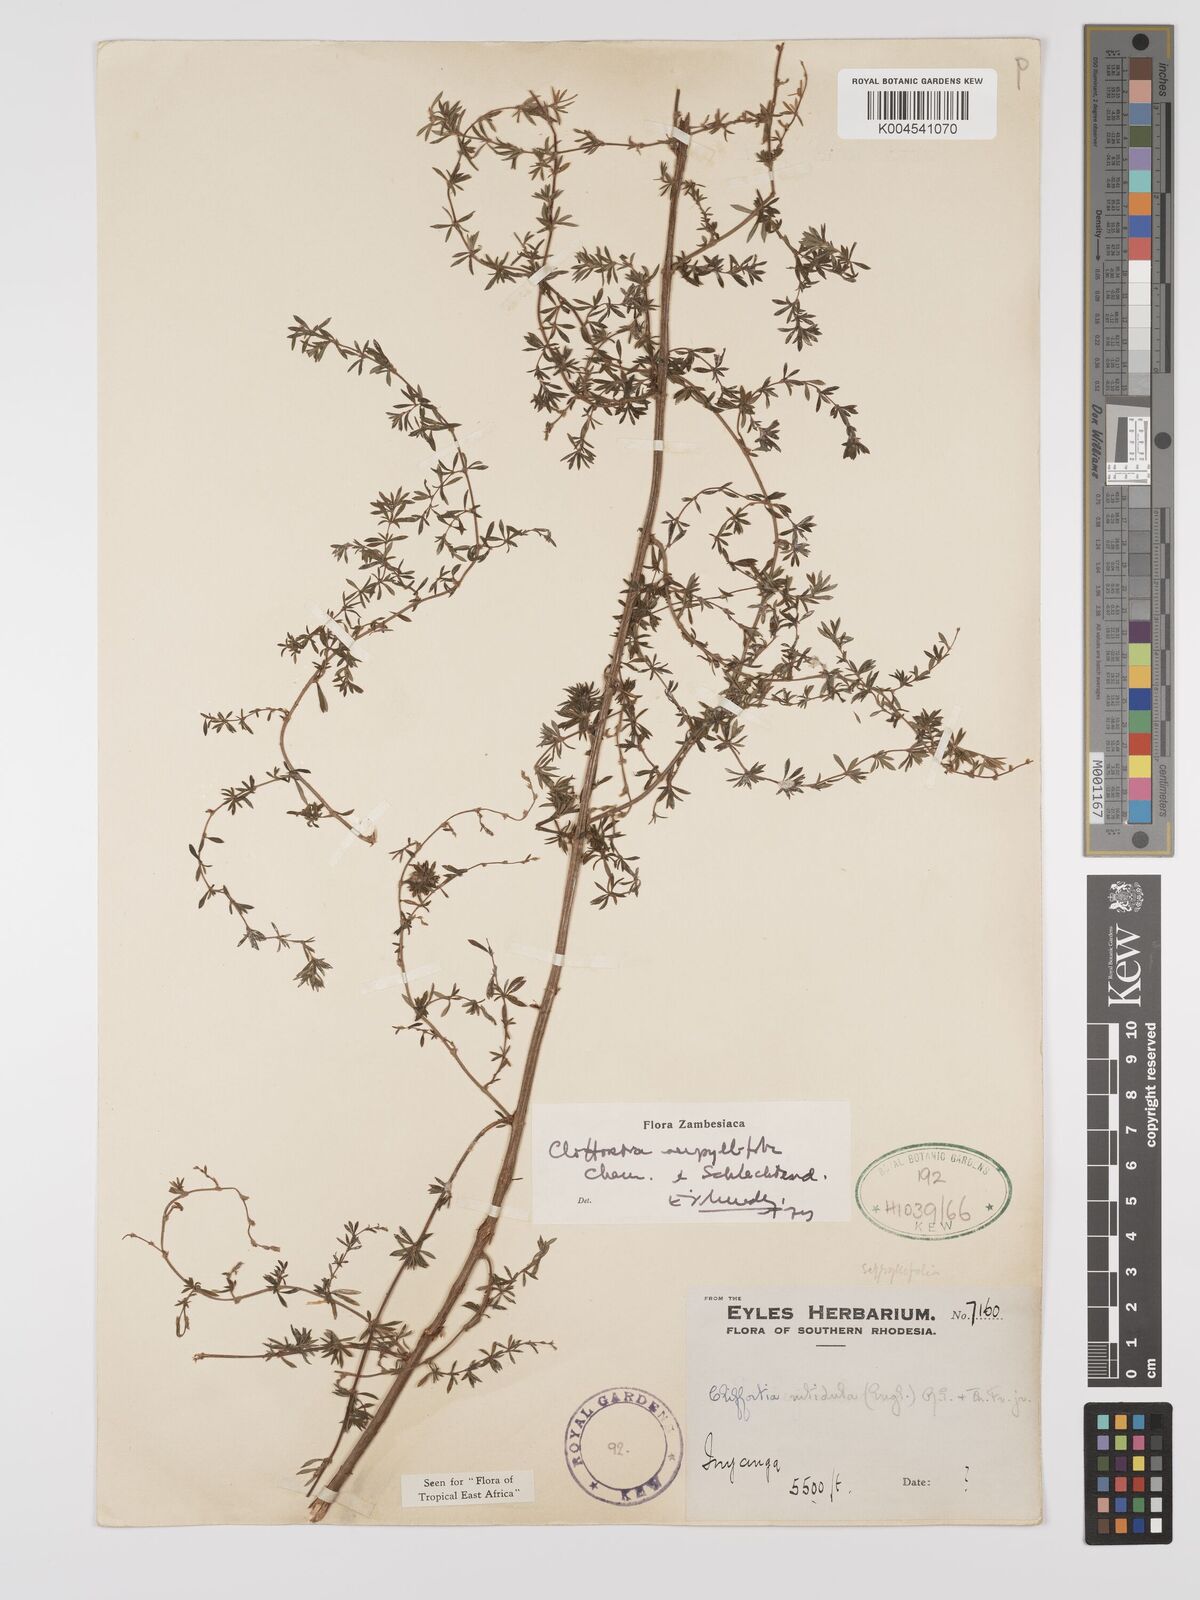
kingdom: Plantae
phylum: Tracheophyta
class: Magnoliopsida
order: Rosales
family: Rosaceae
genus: Cliffortia
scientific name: Cliffortia
